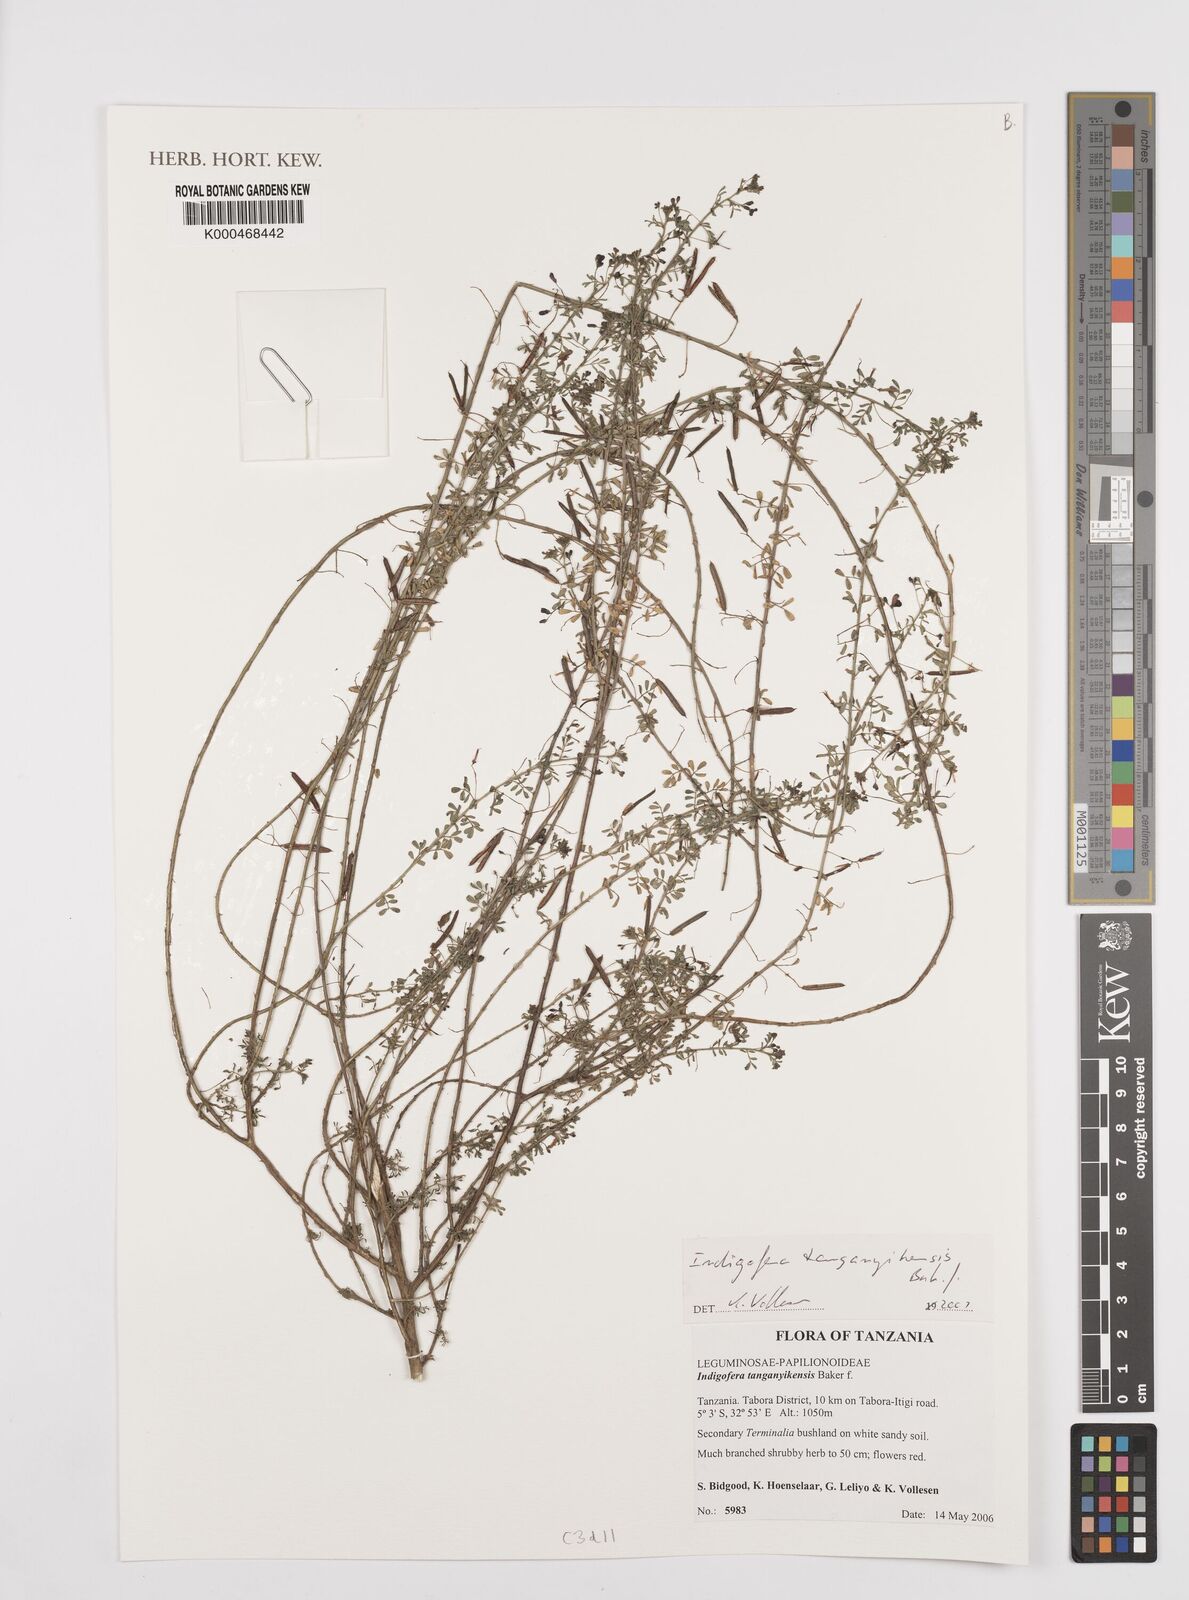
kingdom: Plantae
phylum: Tracheophyta
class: Magnoliopsida
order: Fabales
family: Fabaceae
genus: Indigofera
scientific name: Indigofera tanganyikensis
